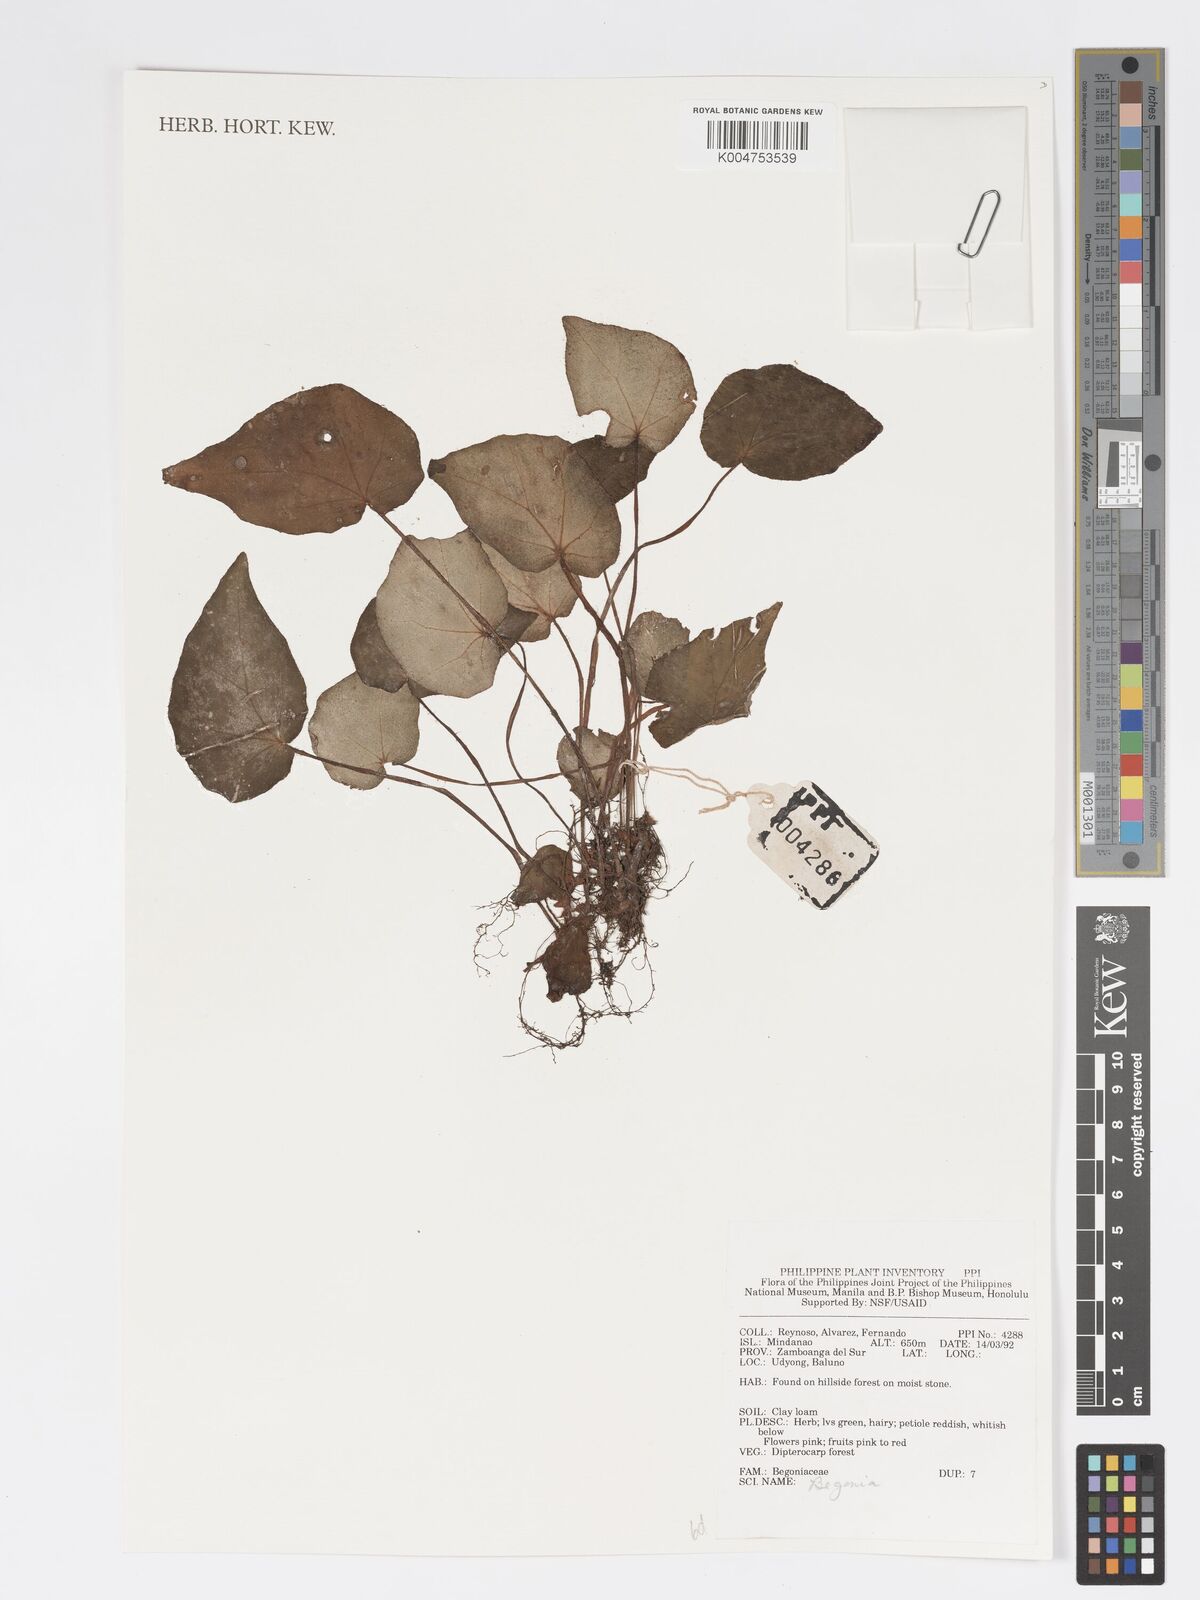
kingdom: Plantae
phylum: Tracheophyta
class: Magnoliopsida
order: Cucurbitales
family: Begoniaceae
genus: Begonia
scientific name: Begonia
